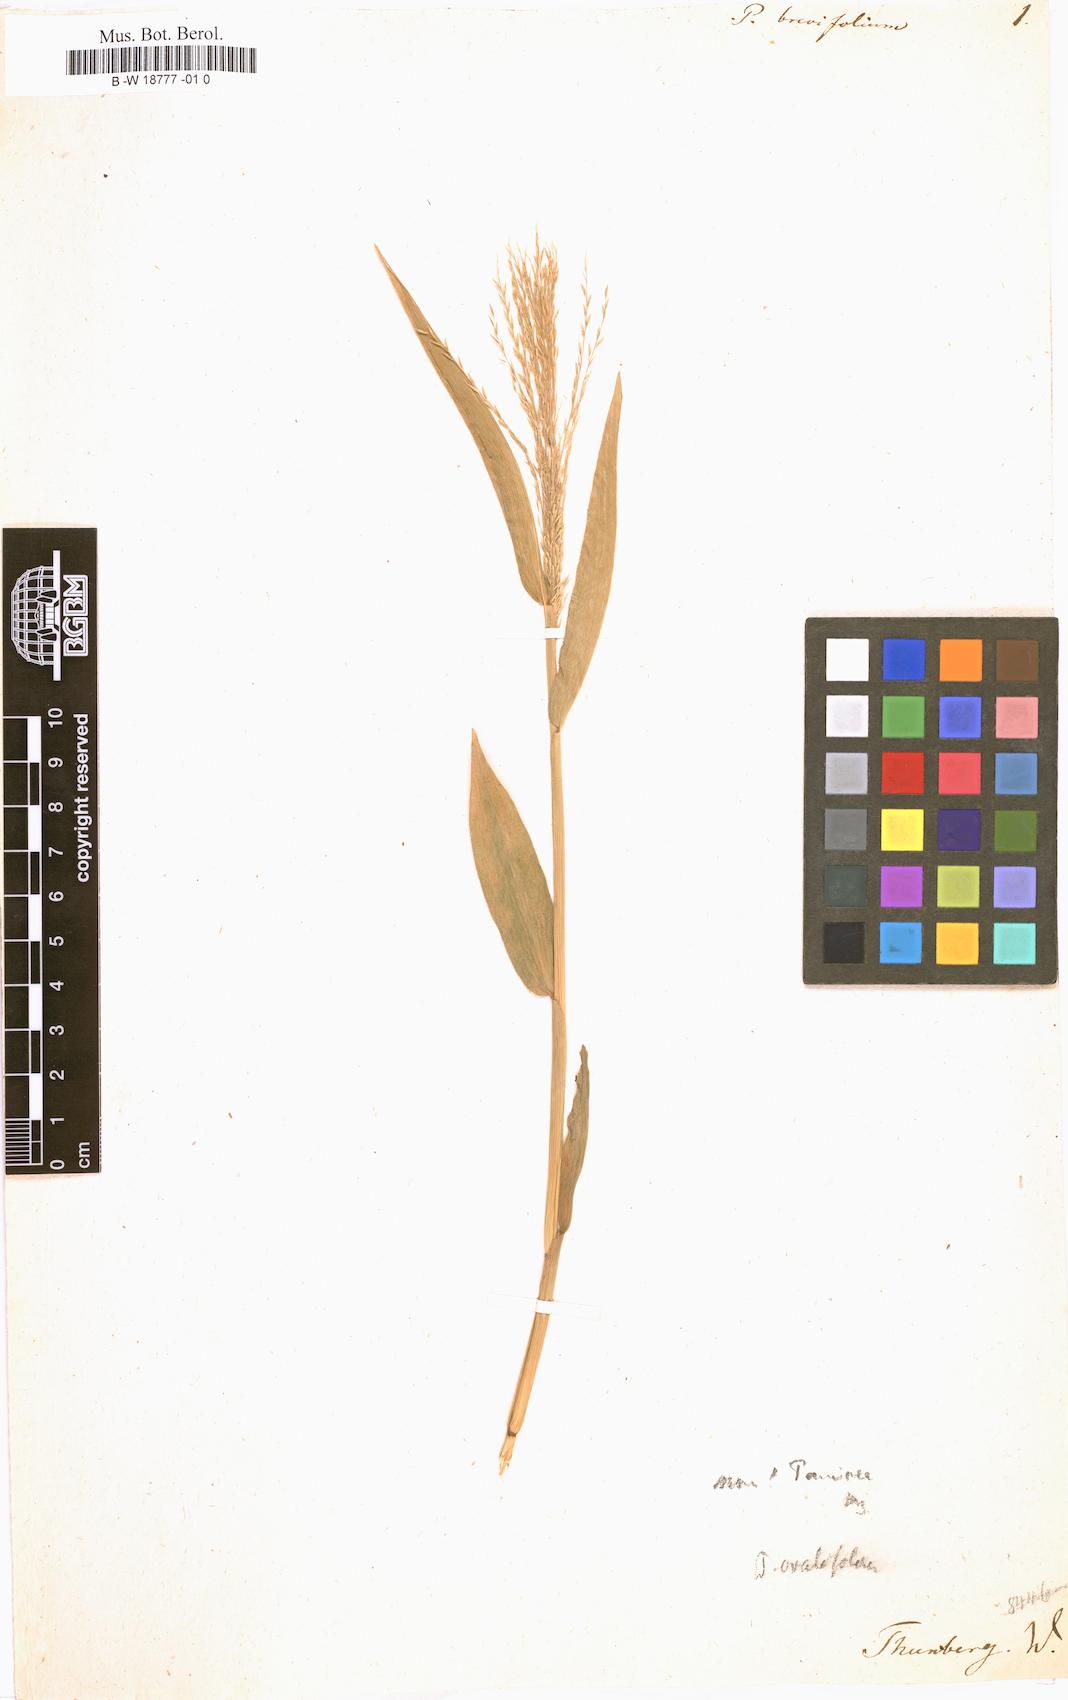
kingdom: Plantae
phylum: Tracheophyta
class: Liliopsida
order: Poales
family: Poaceae
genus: Panicum
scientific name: Panicum brevifolium
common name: Shortleaf panic grass
